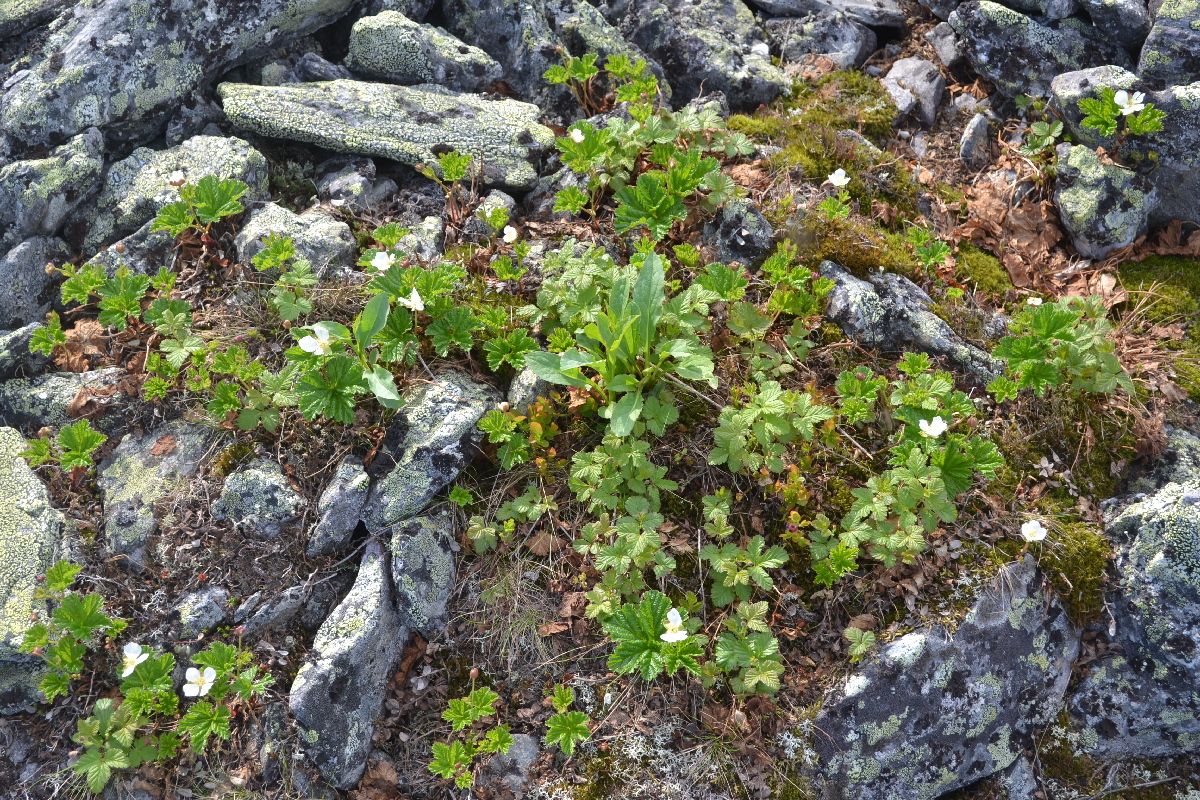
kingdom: Plantae
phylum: Tracheophyta
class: Magnoliopsida
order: Rosales
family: Rosaceae
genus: Rubus
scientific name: Rubus chamaemorus
